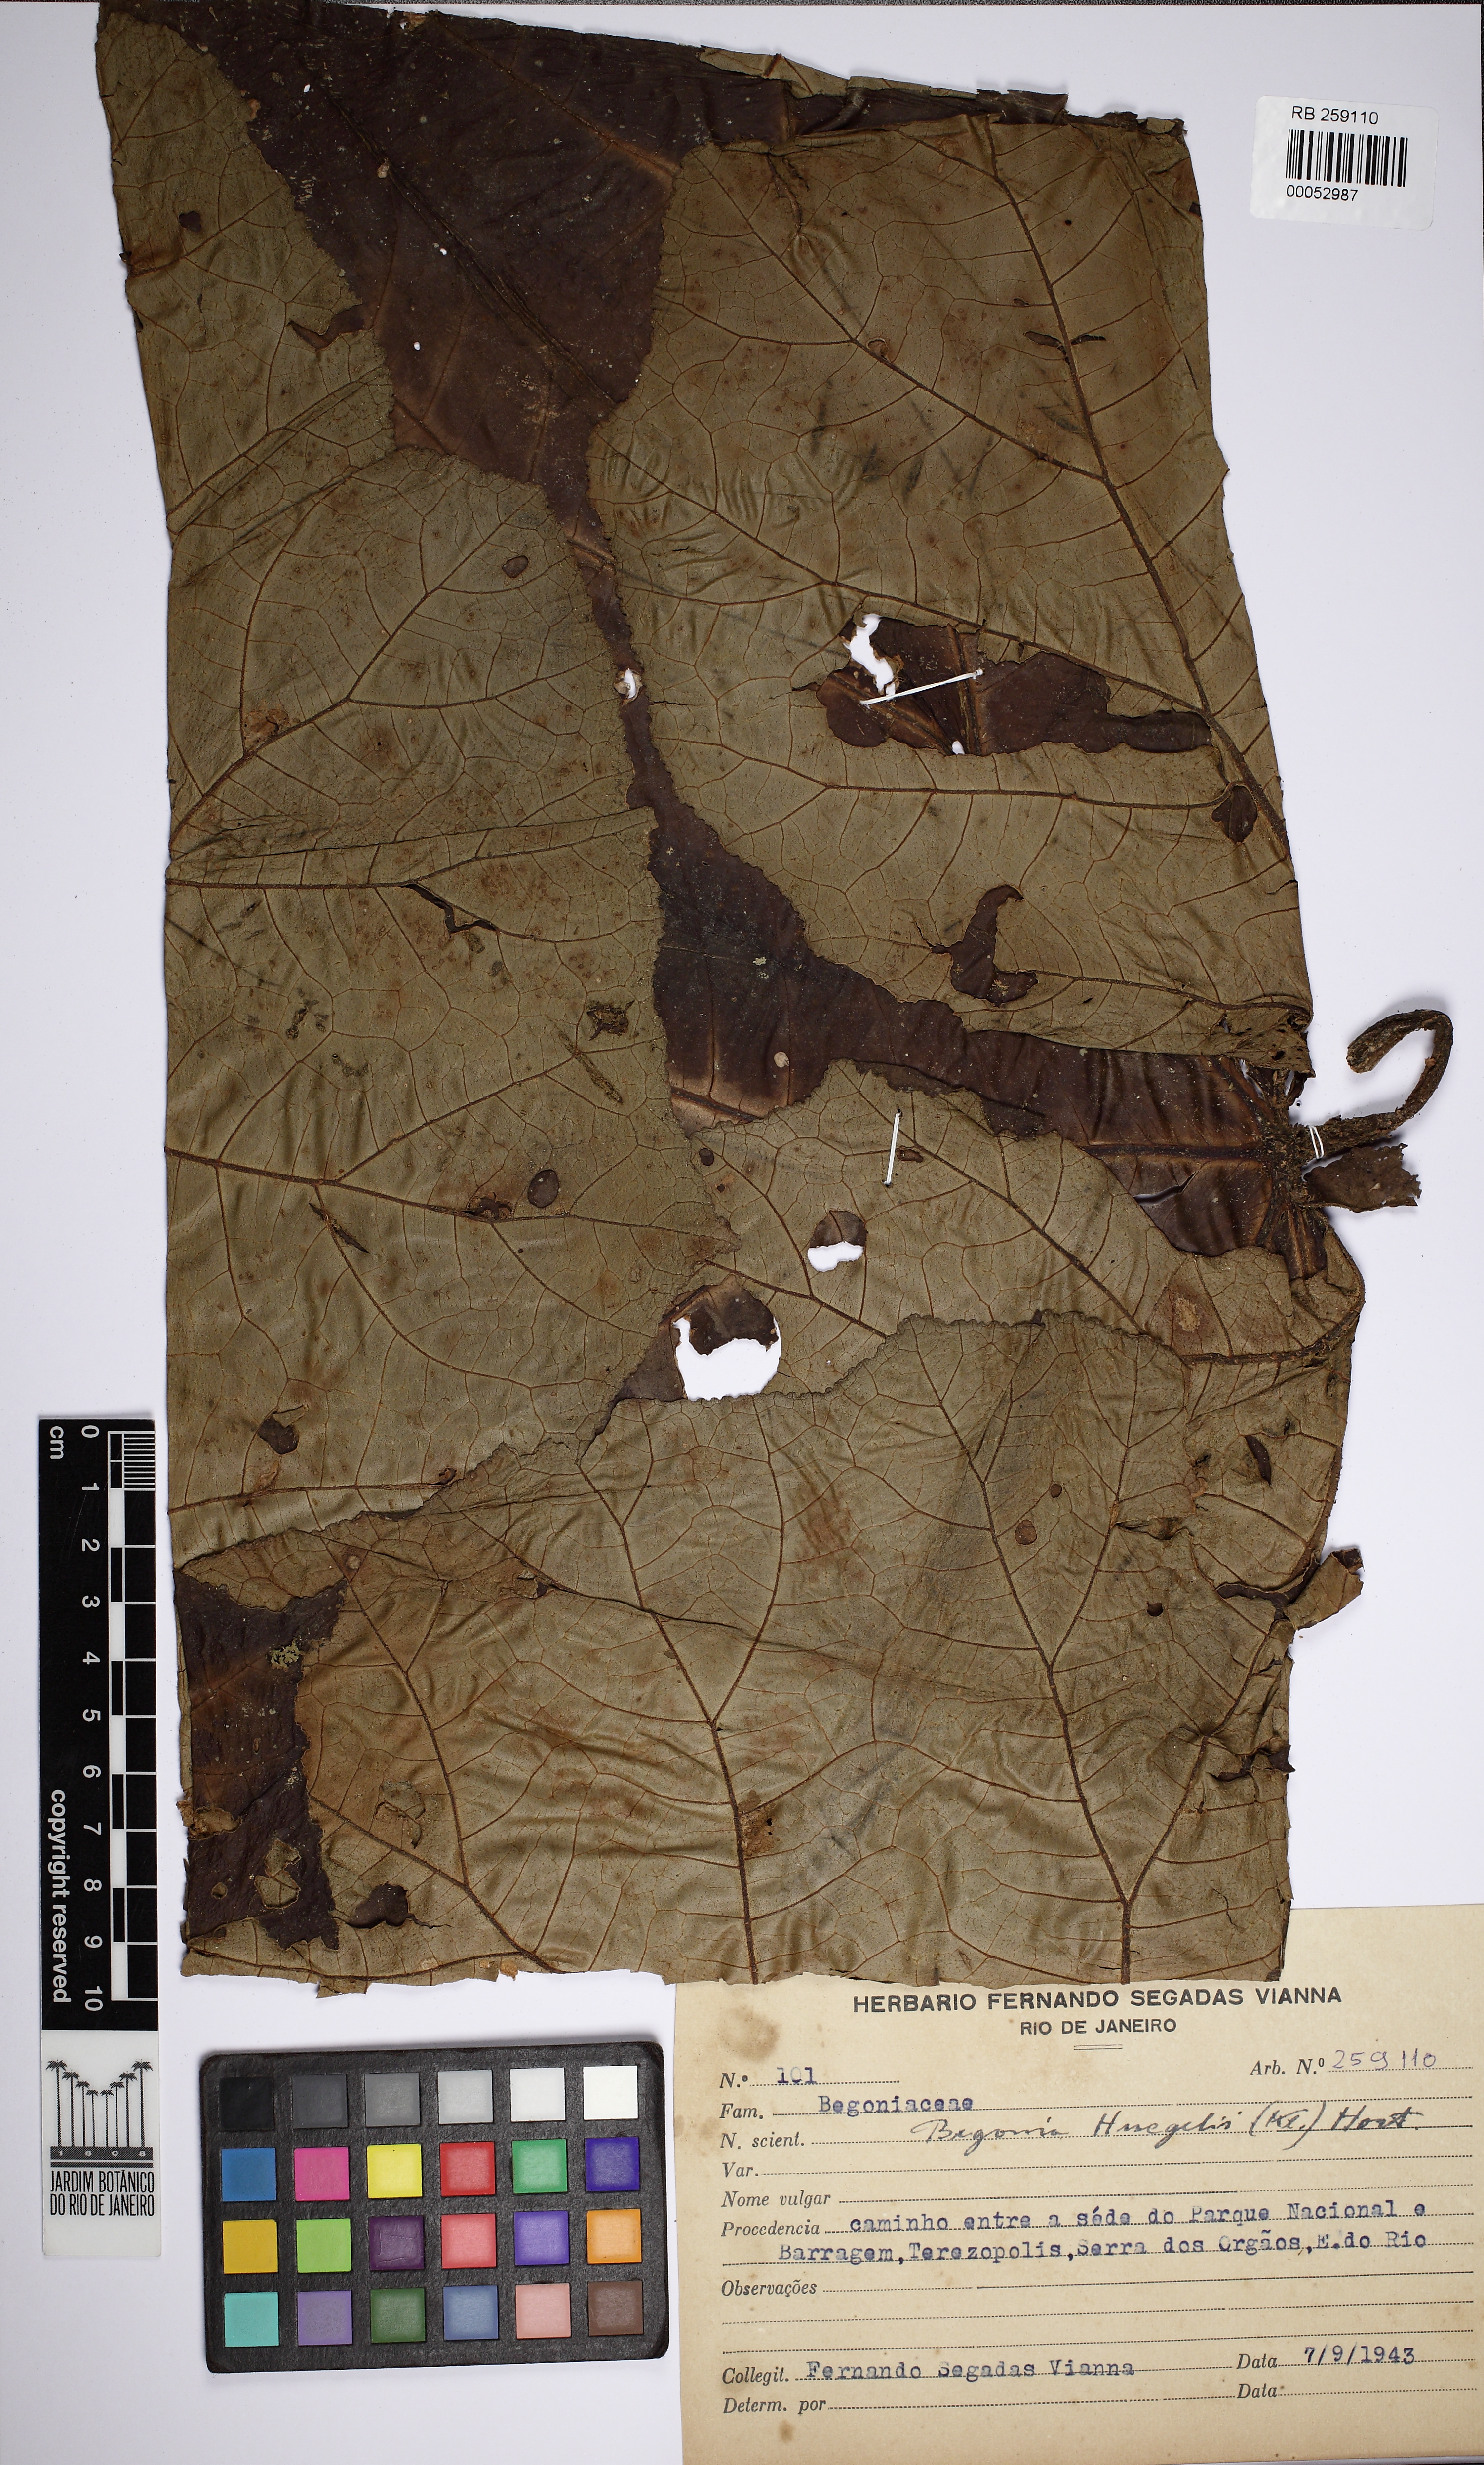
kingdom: Plantae
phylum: Tracheophyta
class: Magnoliopsida
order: Cucurbitales
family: Begoniaceae
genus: Begonia
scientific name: Begonia huegelii
